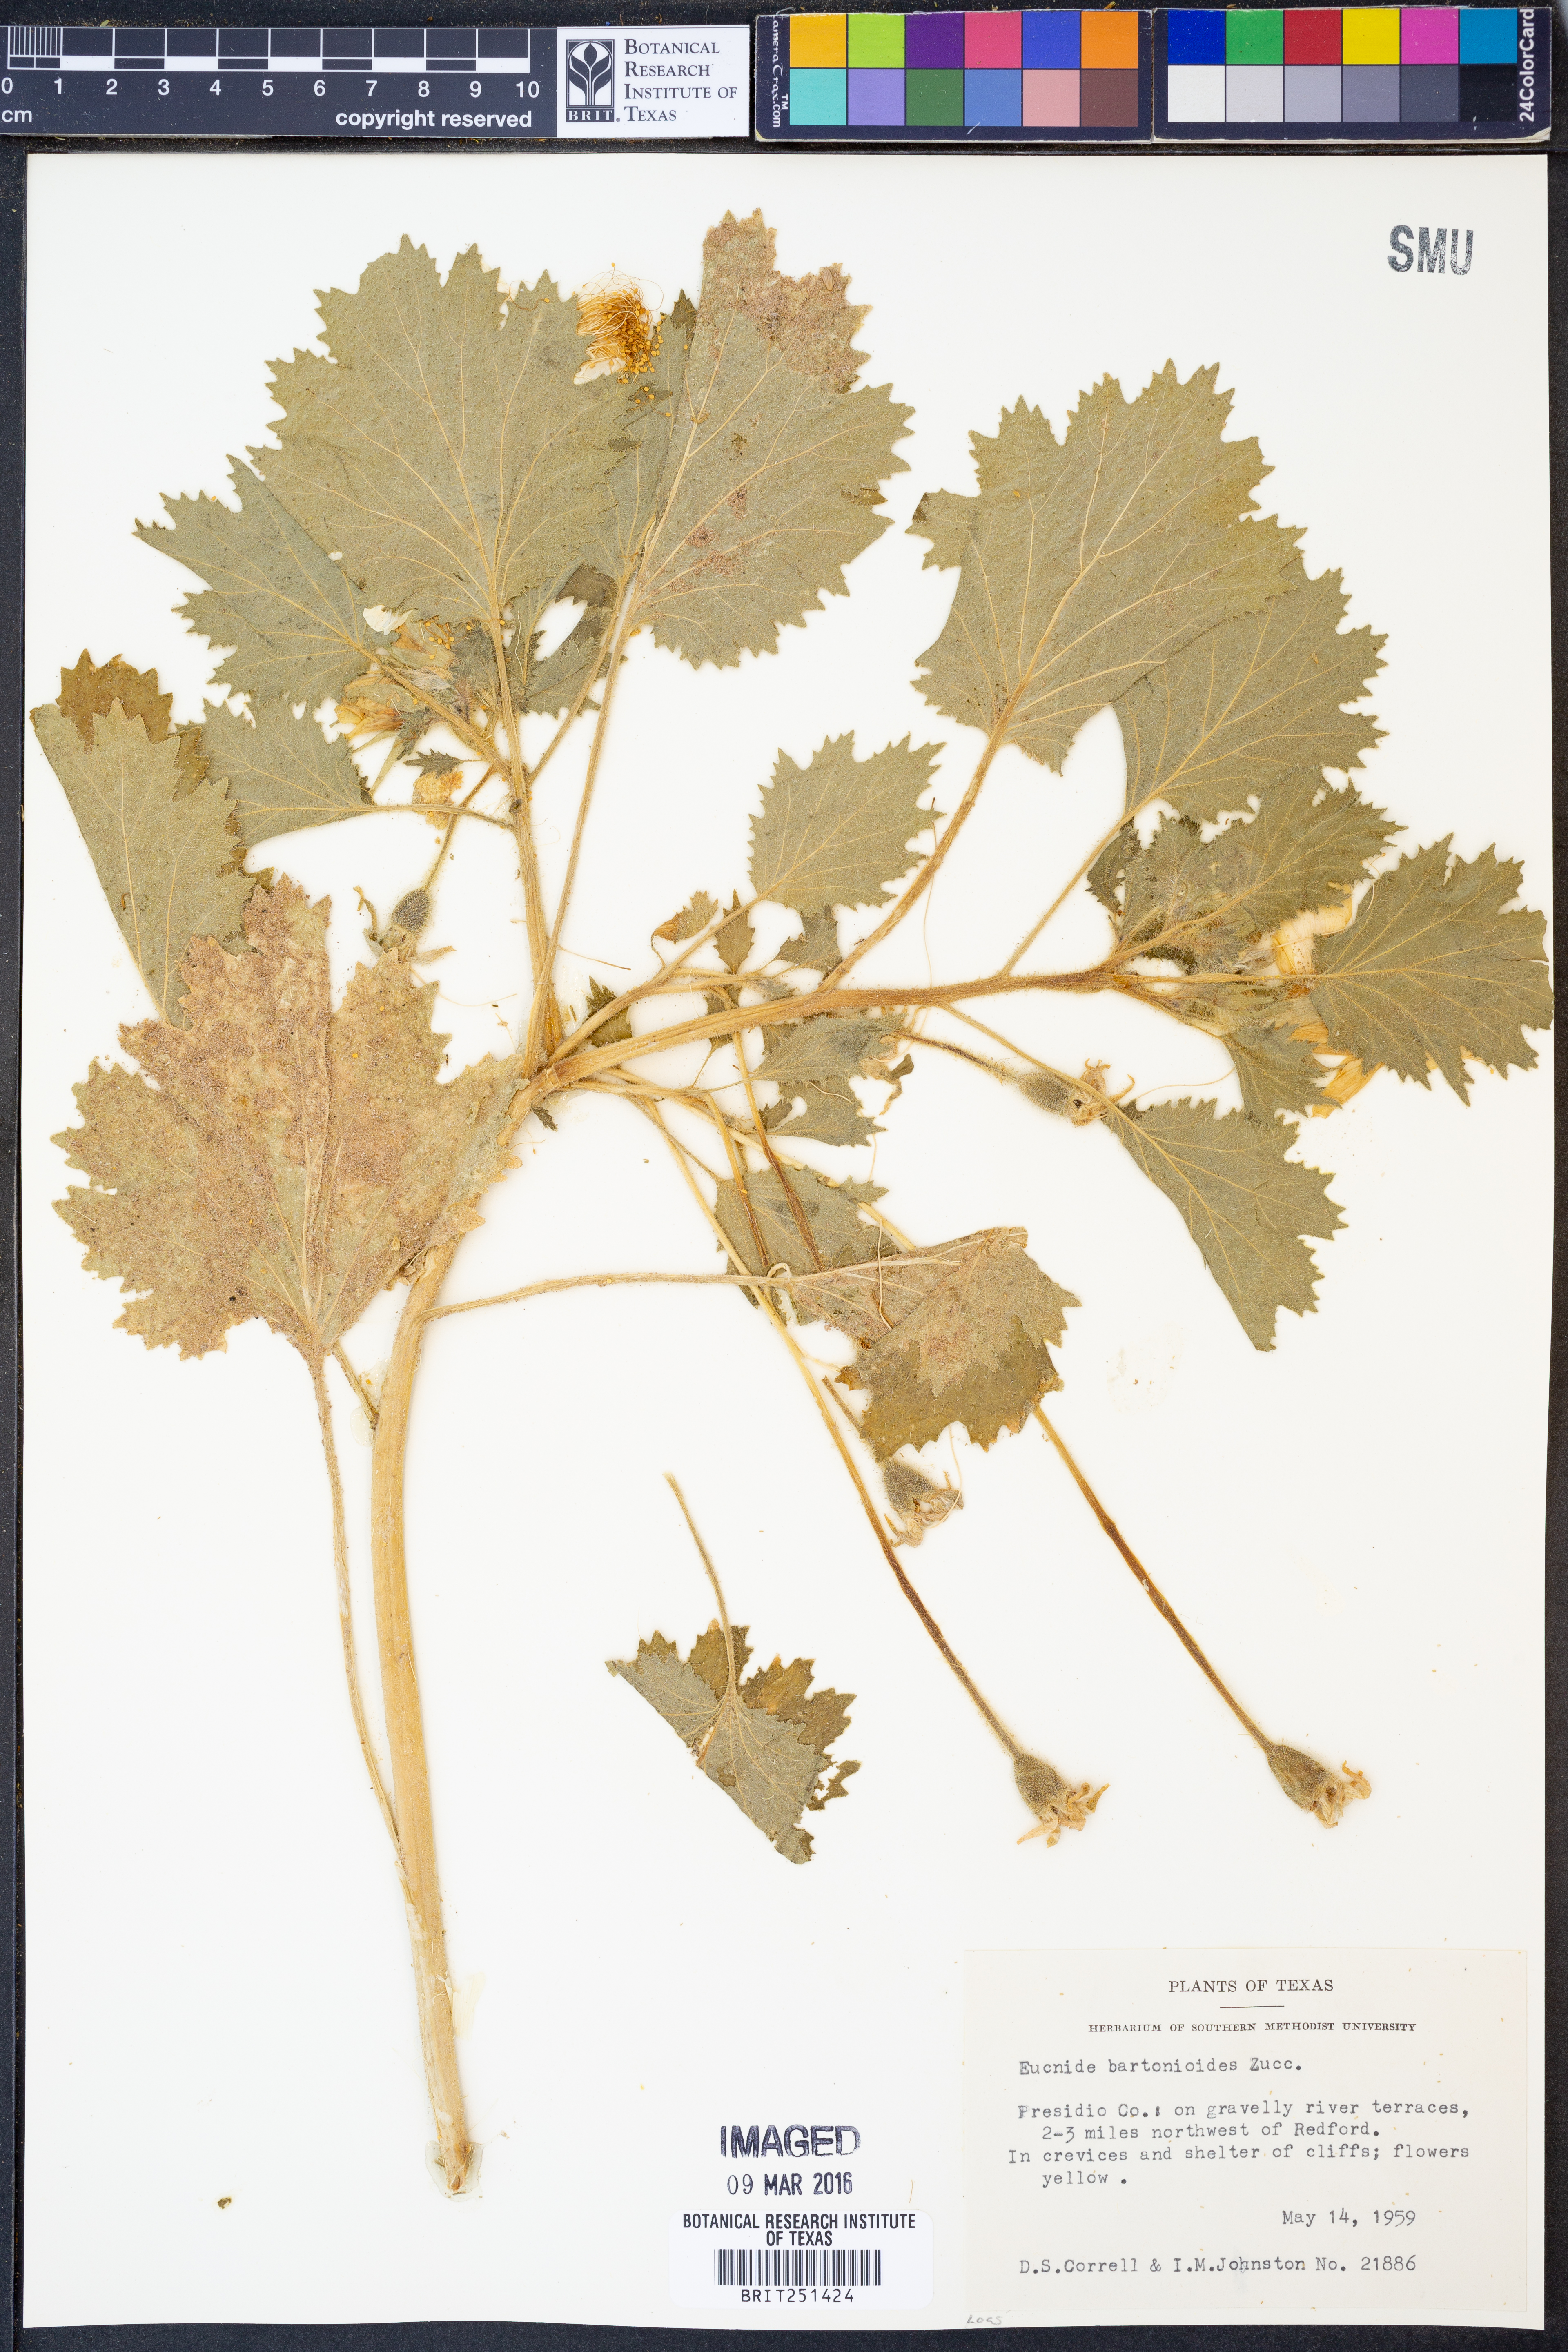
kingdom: Plantae
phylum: Tracheophyta
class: Magnoliopsida
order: Cornales
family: Loasaceae
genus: Eucnide
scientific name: Eucnide bartonioides
